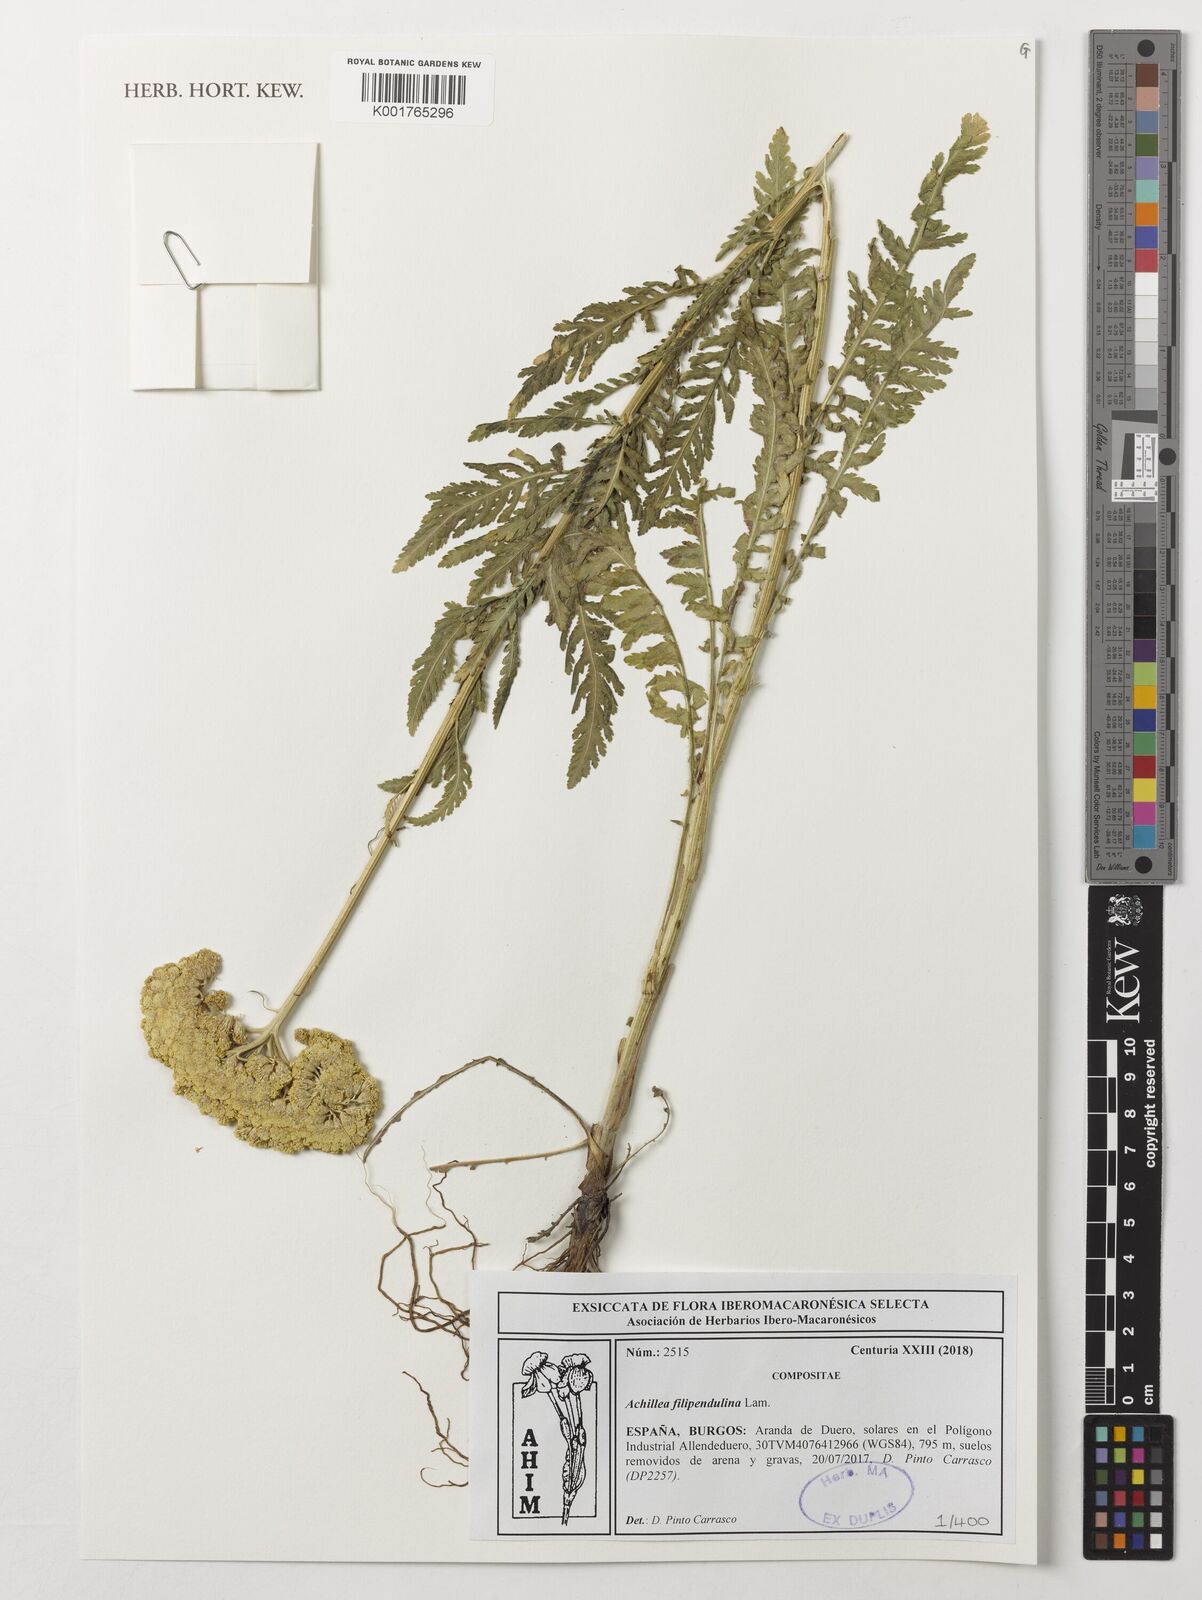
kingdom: Plantae
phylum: Tracheophyta
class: Magnoliopsida
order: Asterales
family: Asteraceae
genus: Achillea
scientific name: Achillea filipendulina
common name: Fernleaf yarrow
